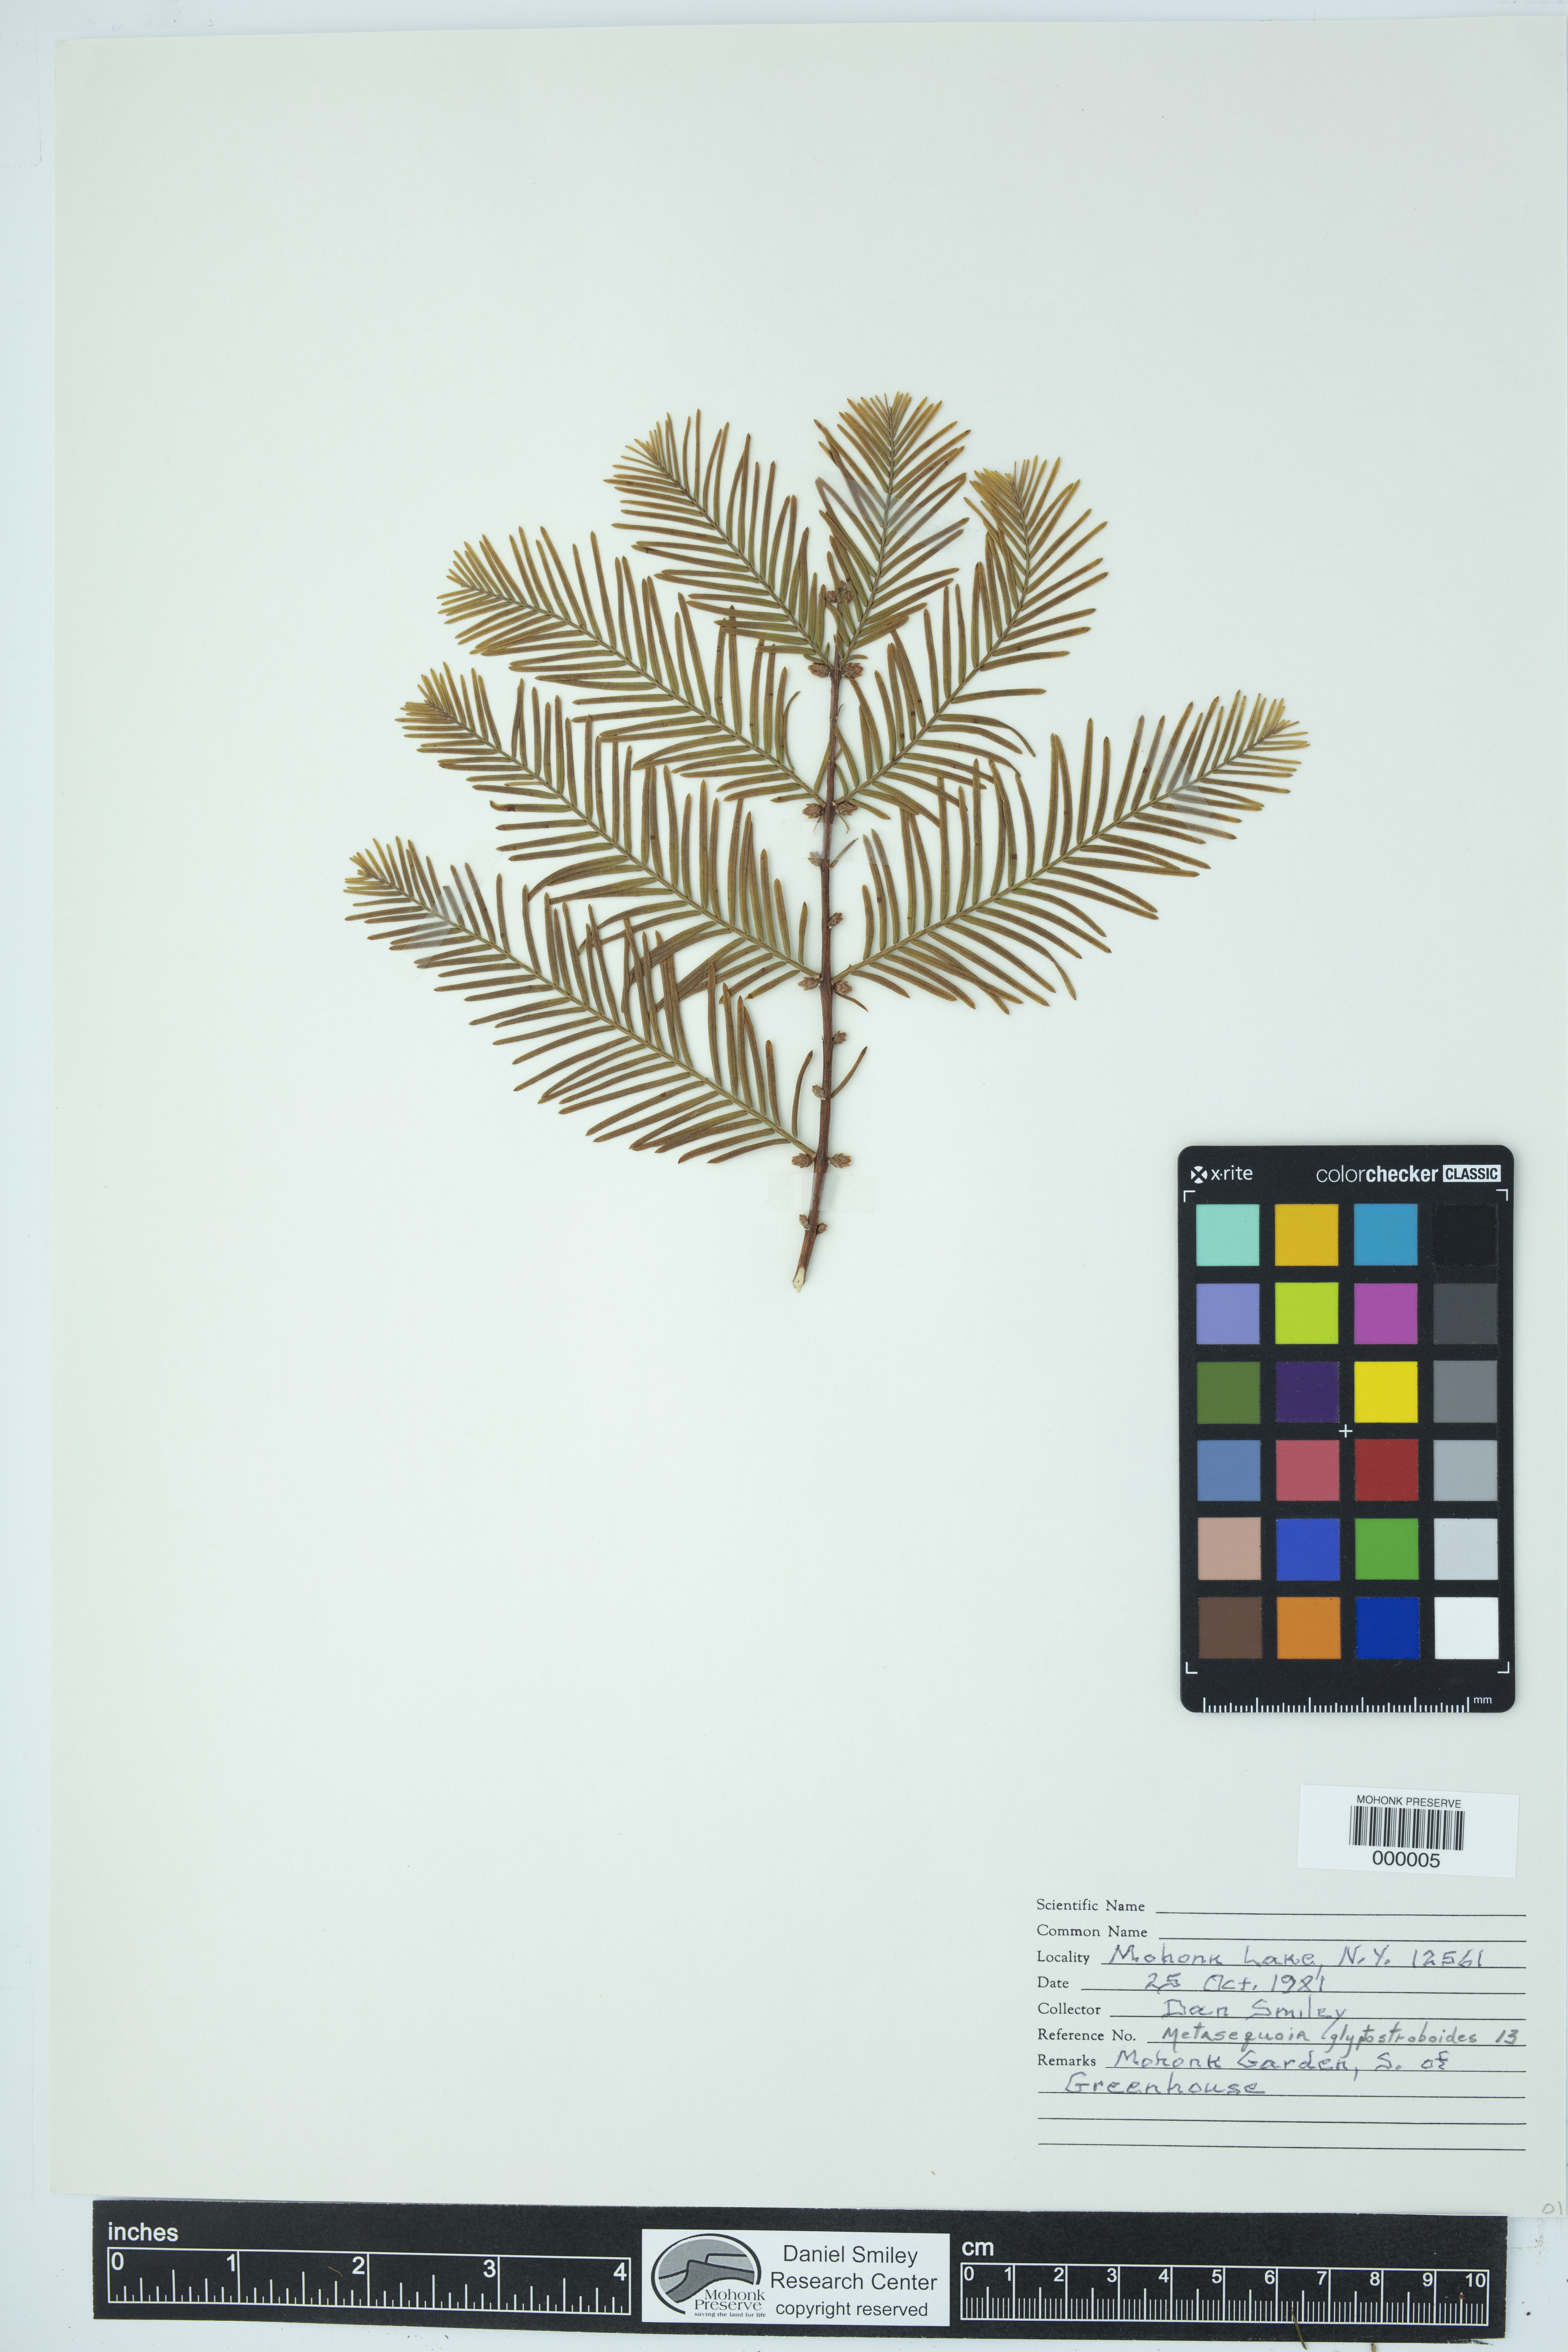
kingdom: Plantae
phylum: Tracheophyta
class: Pinopsida
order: Pinales
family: Cupressaceae
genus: Metasequoia
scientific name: Metasequoia glyptostroboides
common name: Dawn redwood
